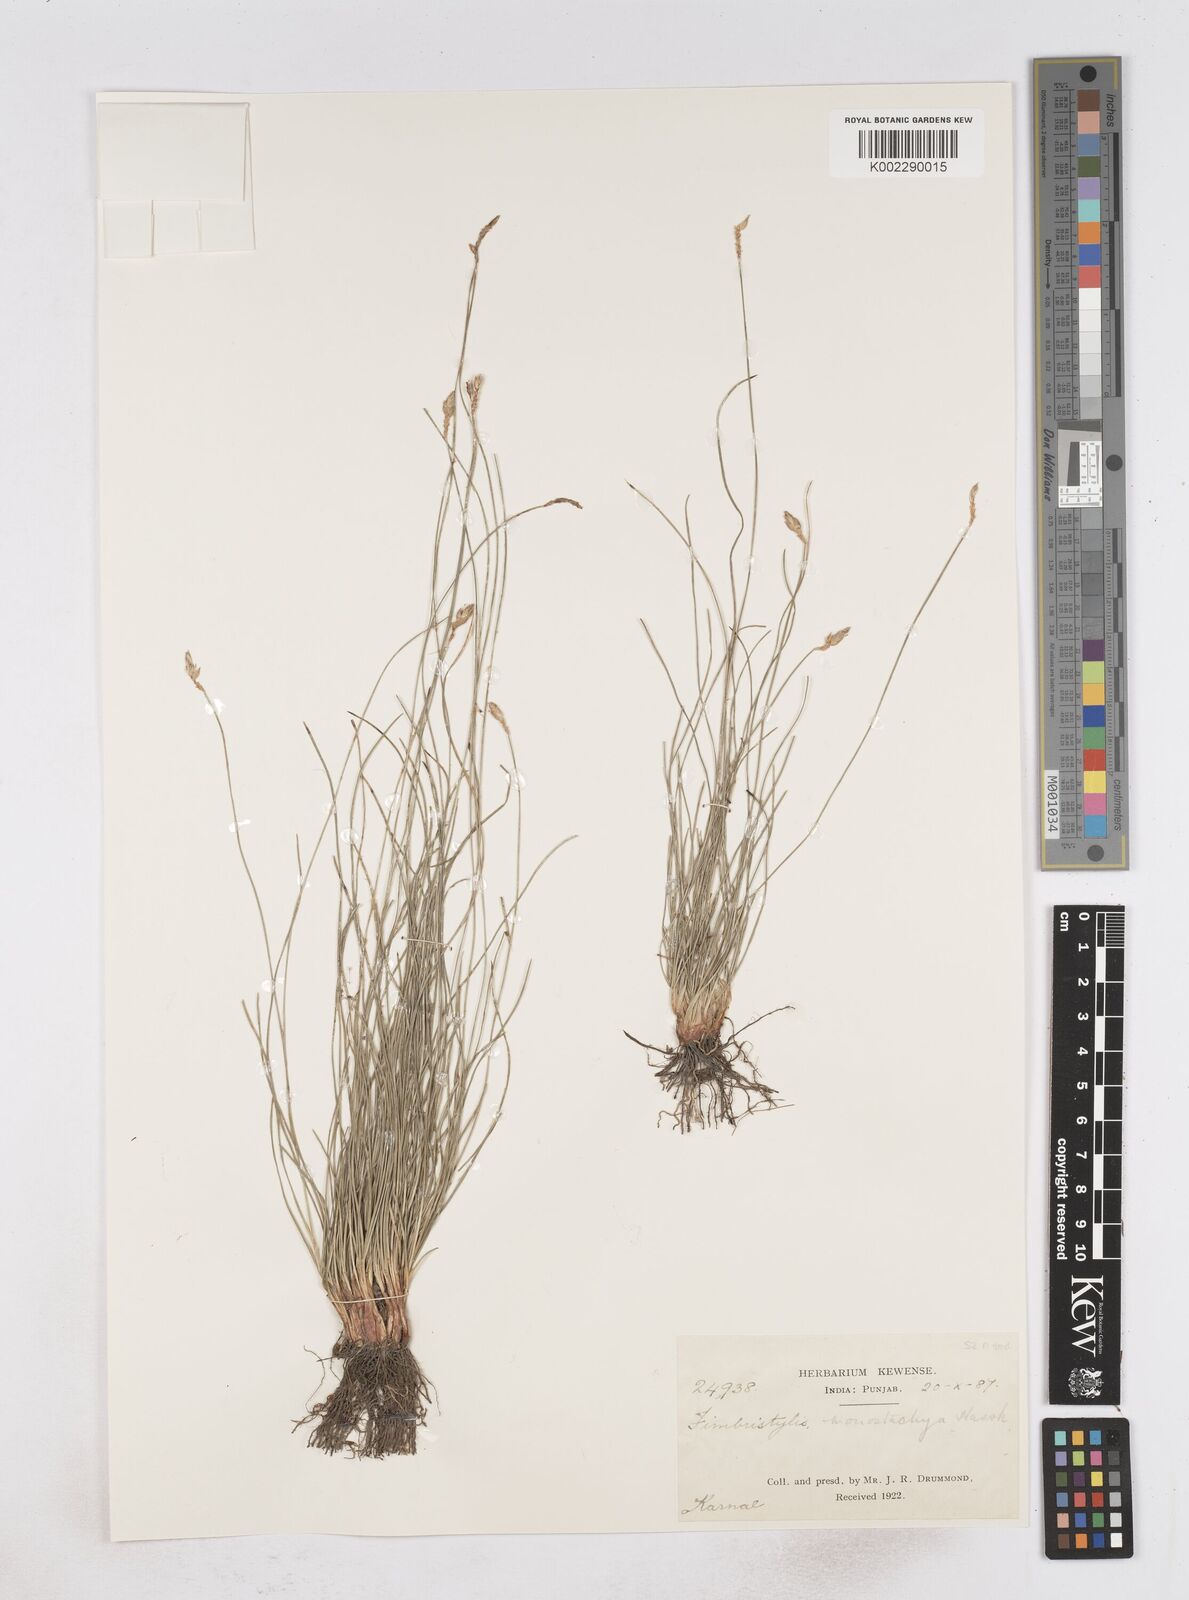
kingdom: Plantae
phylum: Tracheophyta
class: Liliopsida
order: Poales
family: Cyperaceae
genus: Abildgaardia
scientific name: Abildgaardia ovata
